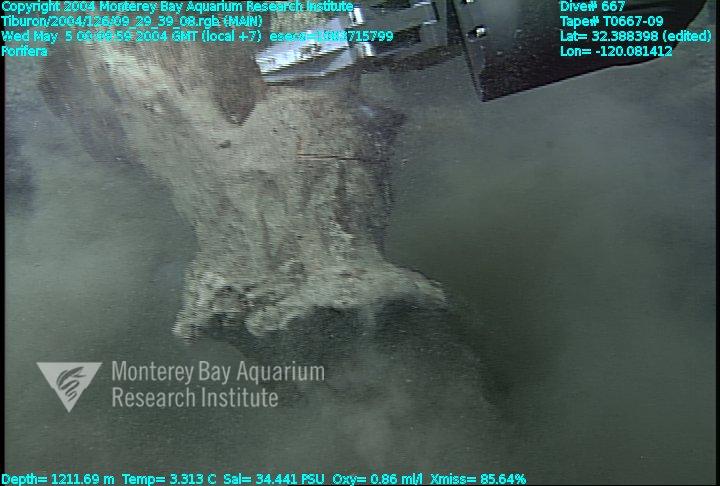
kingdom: Animalia
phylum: Porifera
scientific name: Porifera
